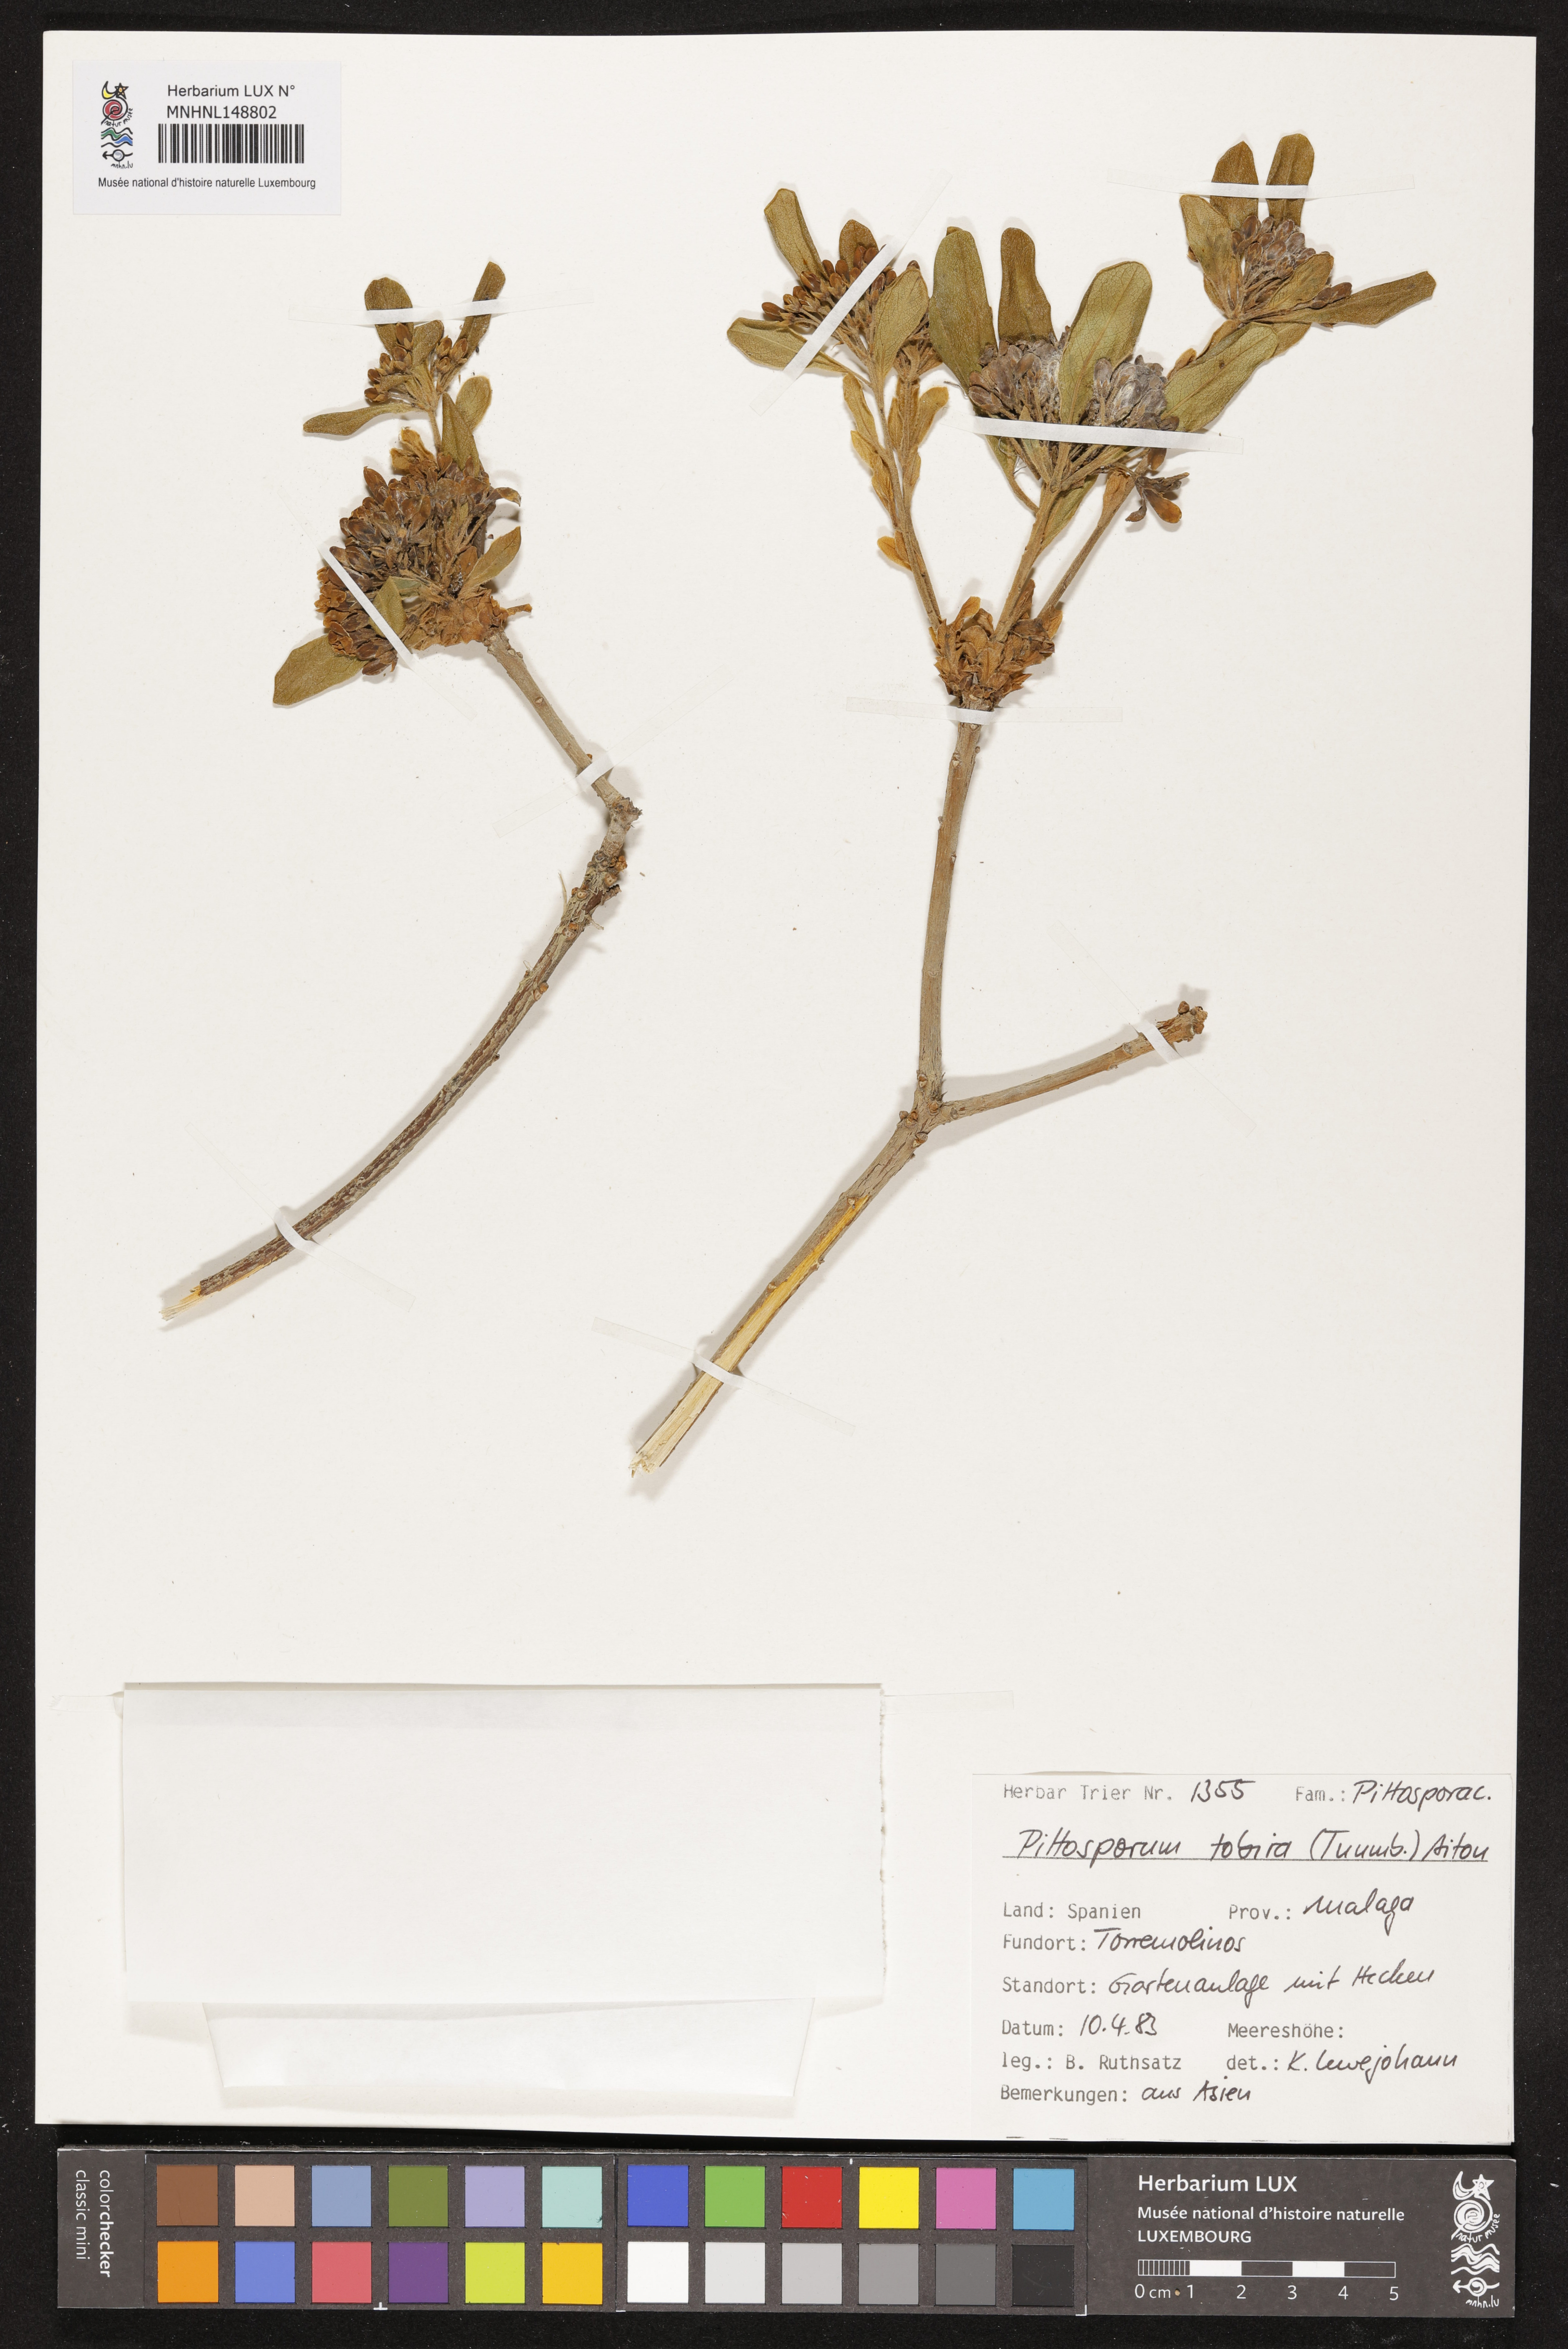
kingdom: Plantae
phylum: Tracheophyta
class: Magnoliopsida
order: Apiales
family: Pittosporaceae
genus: Pittosporum
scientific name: Pittosporum tobira
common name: Japanese cheesewood
